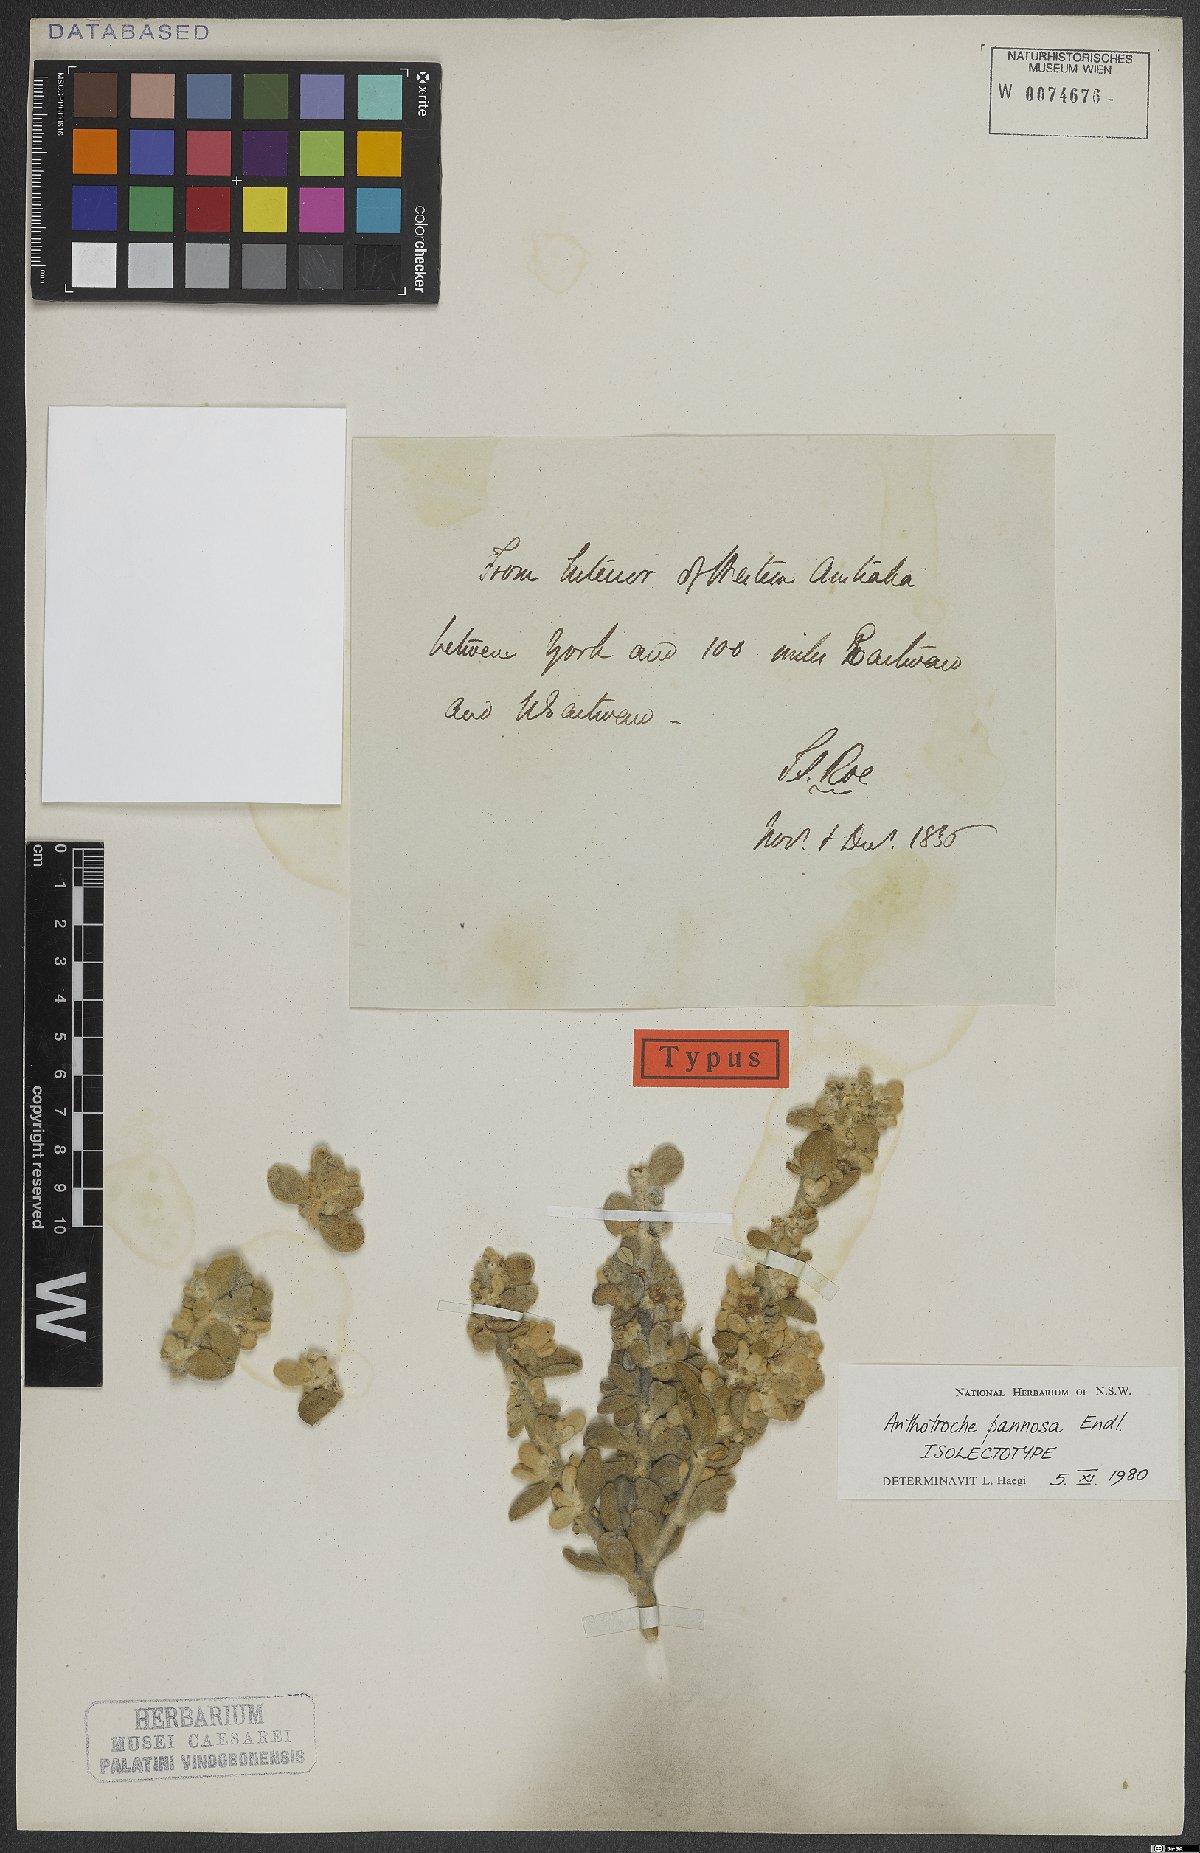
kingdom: Plantae
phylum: Tracheophyta
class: Magnoliopsida
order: Solanales
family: Solanaceae
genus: Anthotroche
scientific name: Anthotroche pannosa
